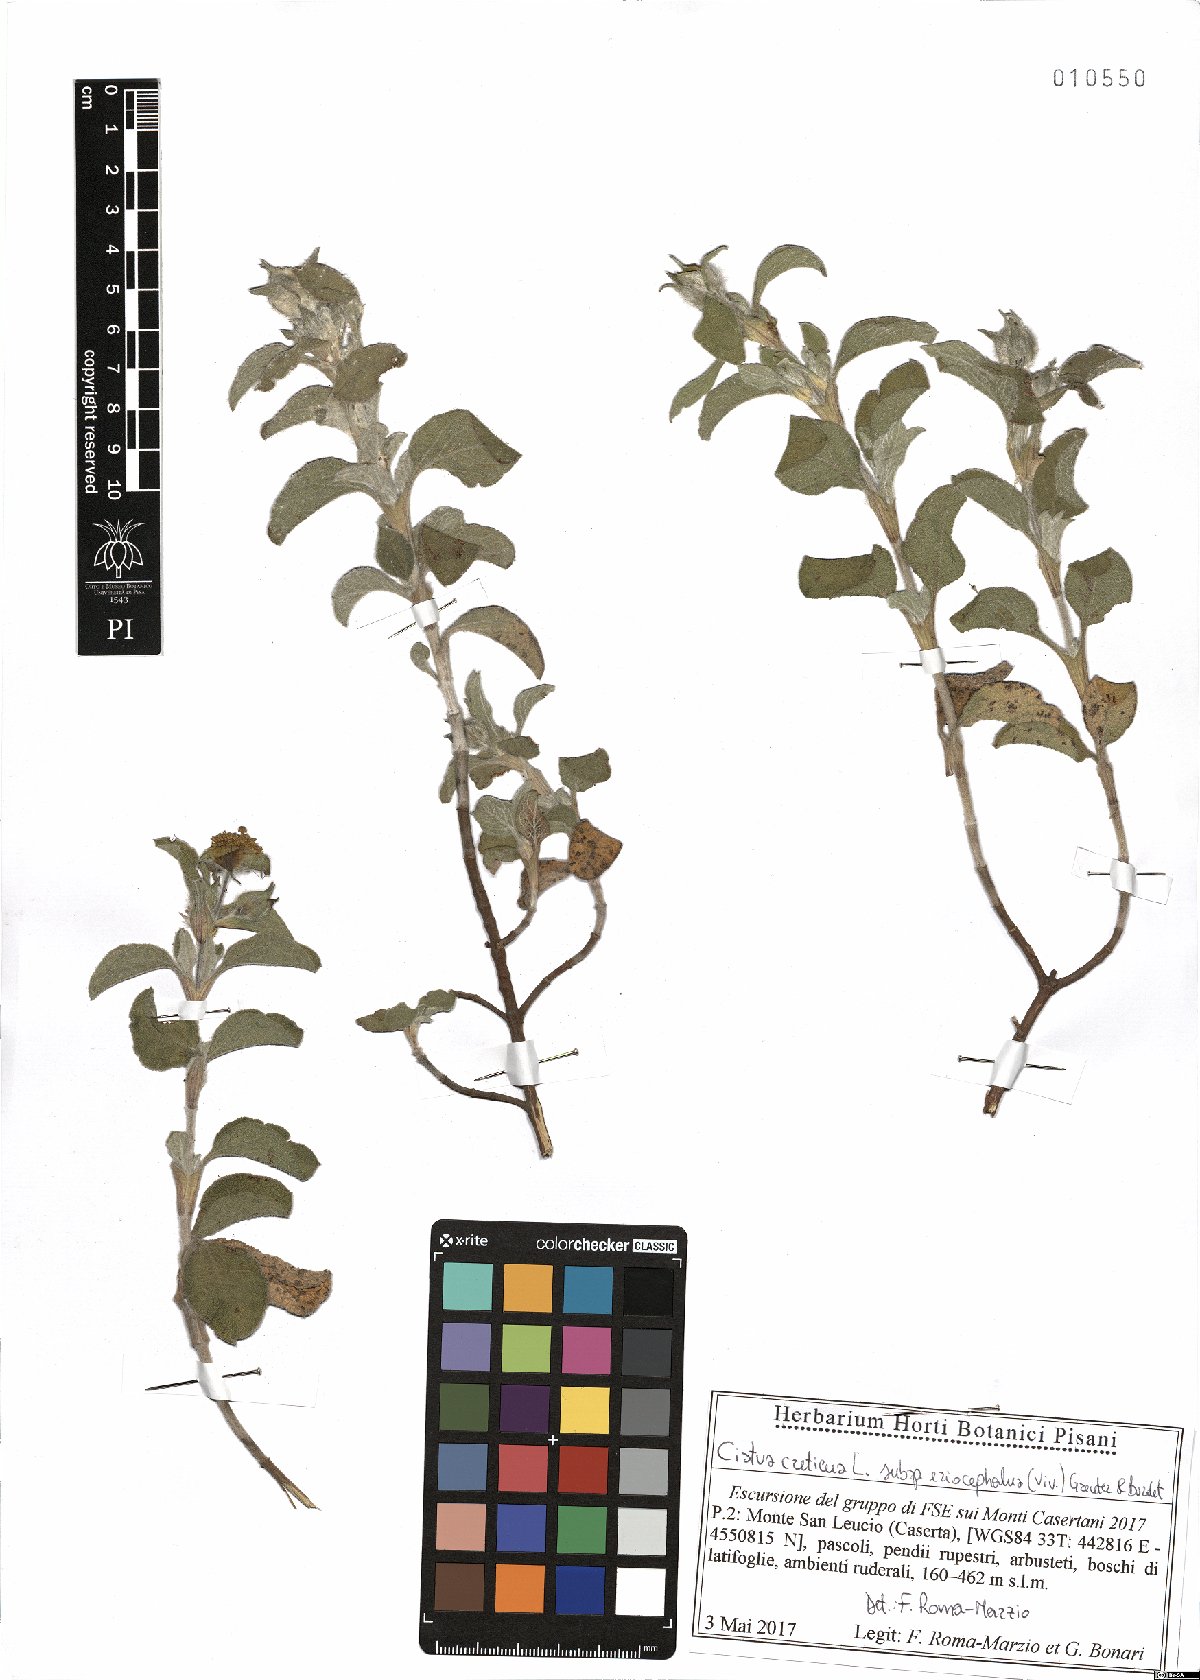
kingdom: Plantae
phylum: Tracheophyta
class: Magnoliopsida
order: Malvales
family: Cistaceae
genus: Cistus
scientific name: Cistus tauricus
